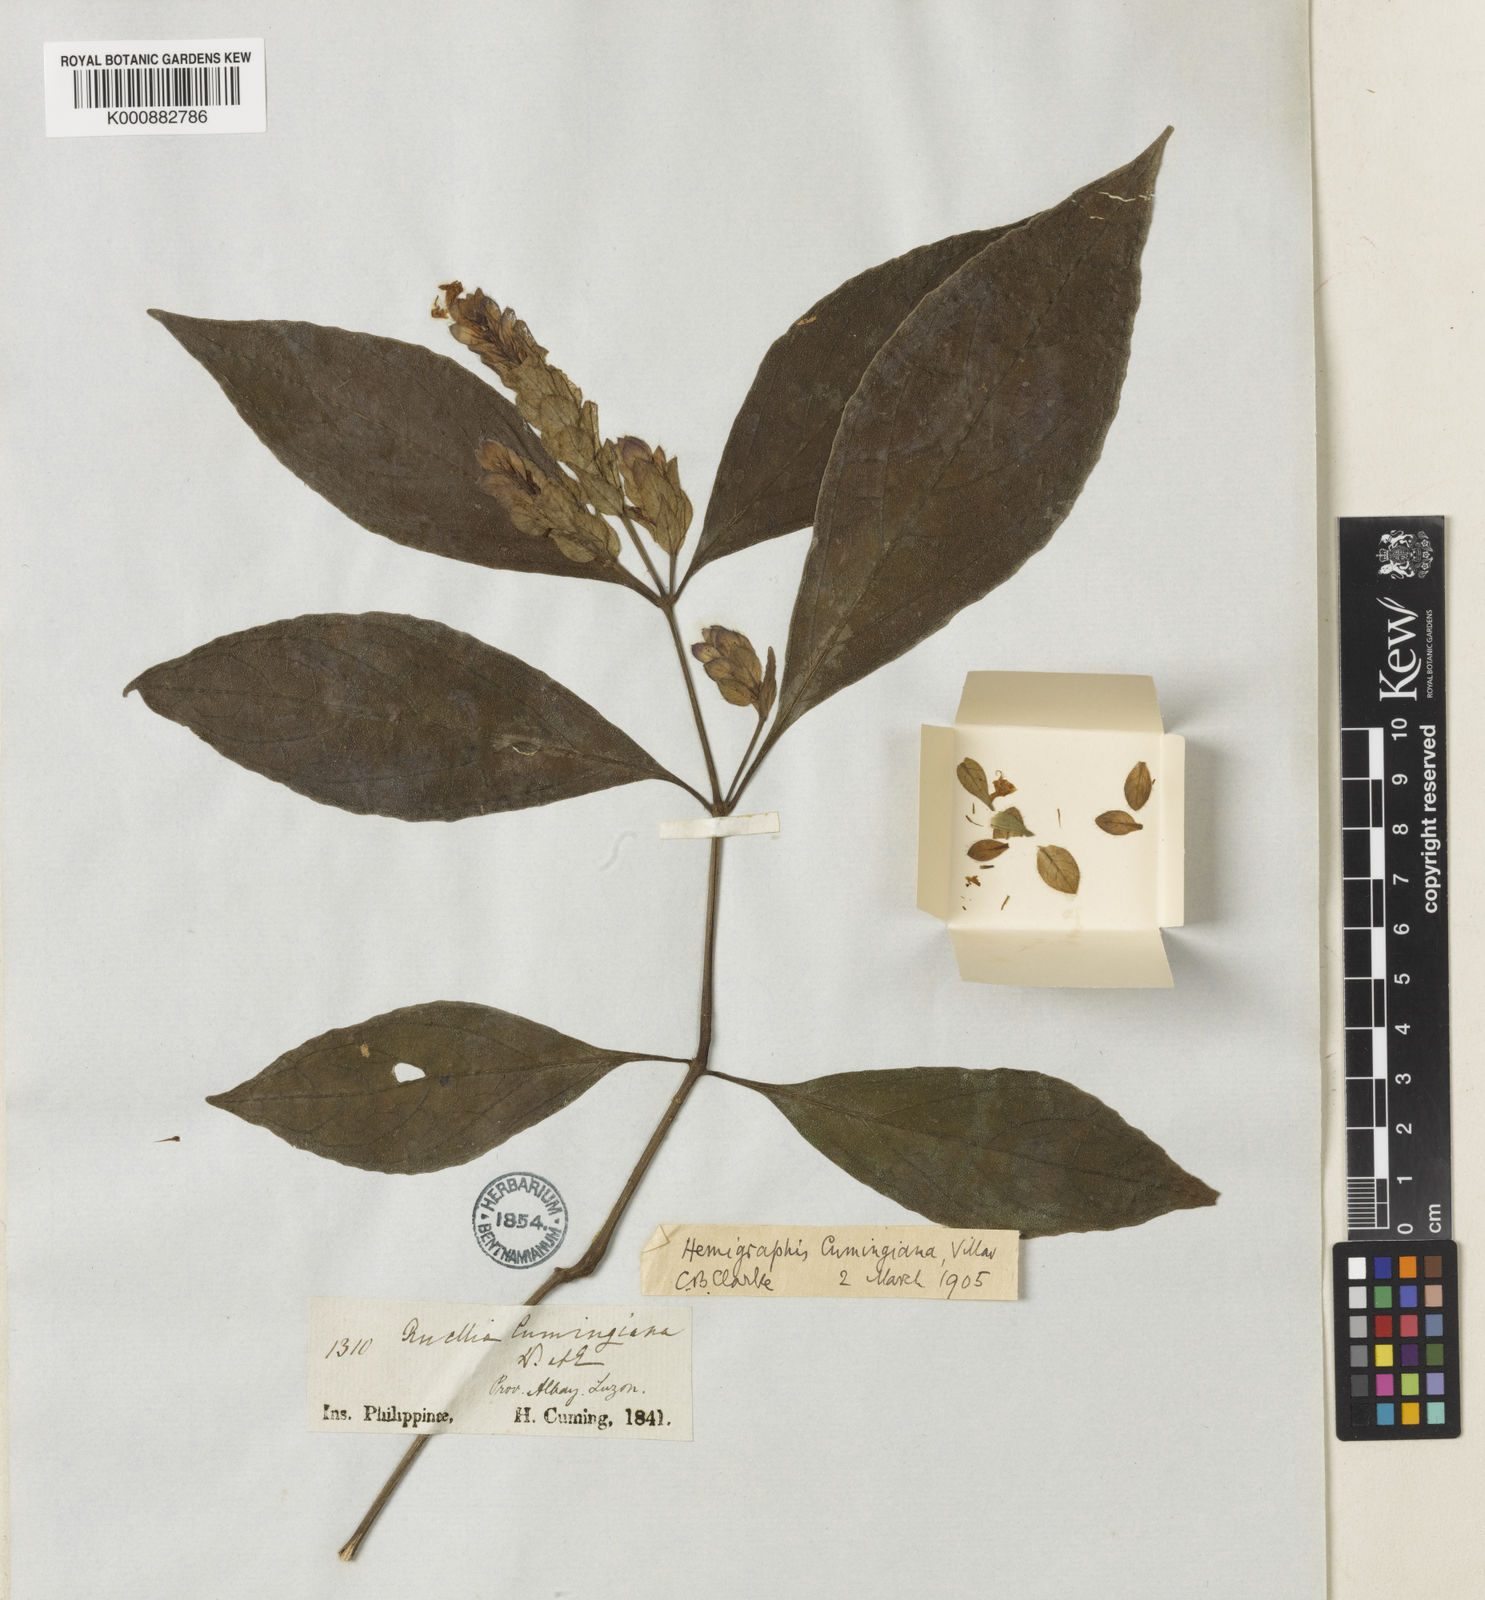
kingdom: Plantae
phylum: Tracheophyta
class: Magnoliopsida
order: Lamiales
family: Acanthaceae
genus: Strobilanthes
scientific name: Strobilanthes cumingiana
